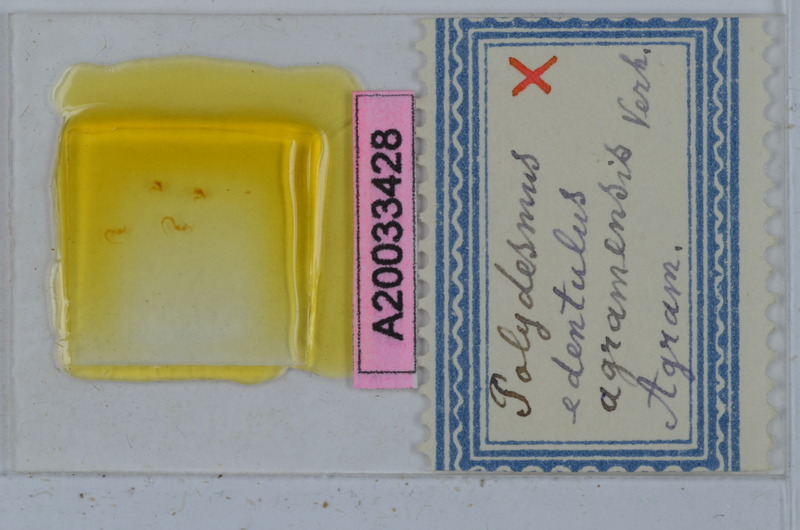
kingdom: Animalia
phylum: Arthropoda
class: Diplopoda
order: Polydesmida
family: Polydesmidae
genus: Polydesmus
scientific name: Polydesmus edentulus
